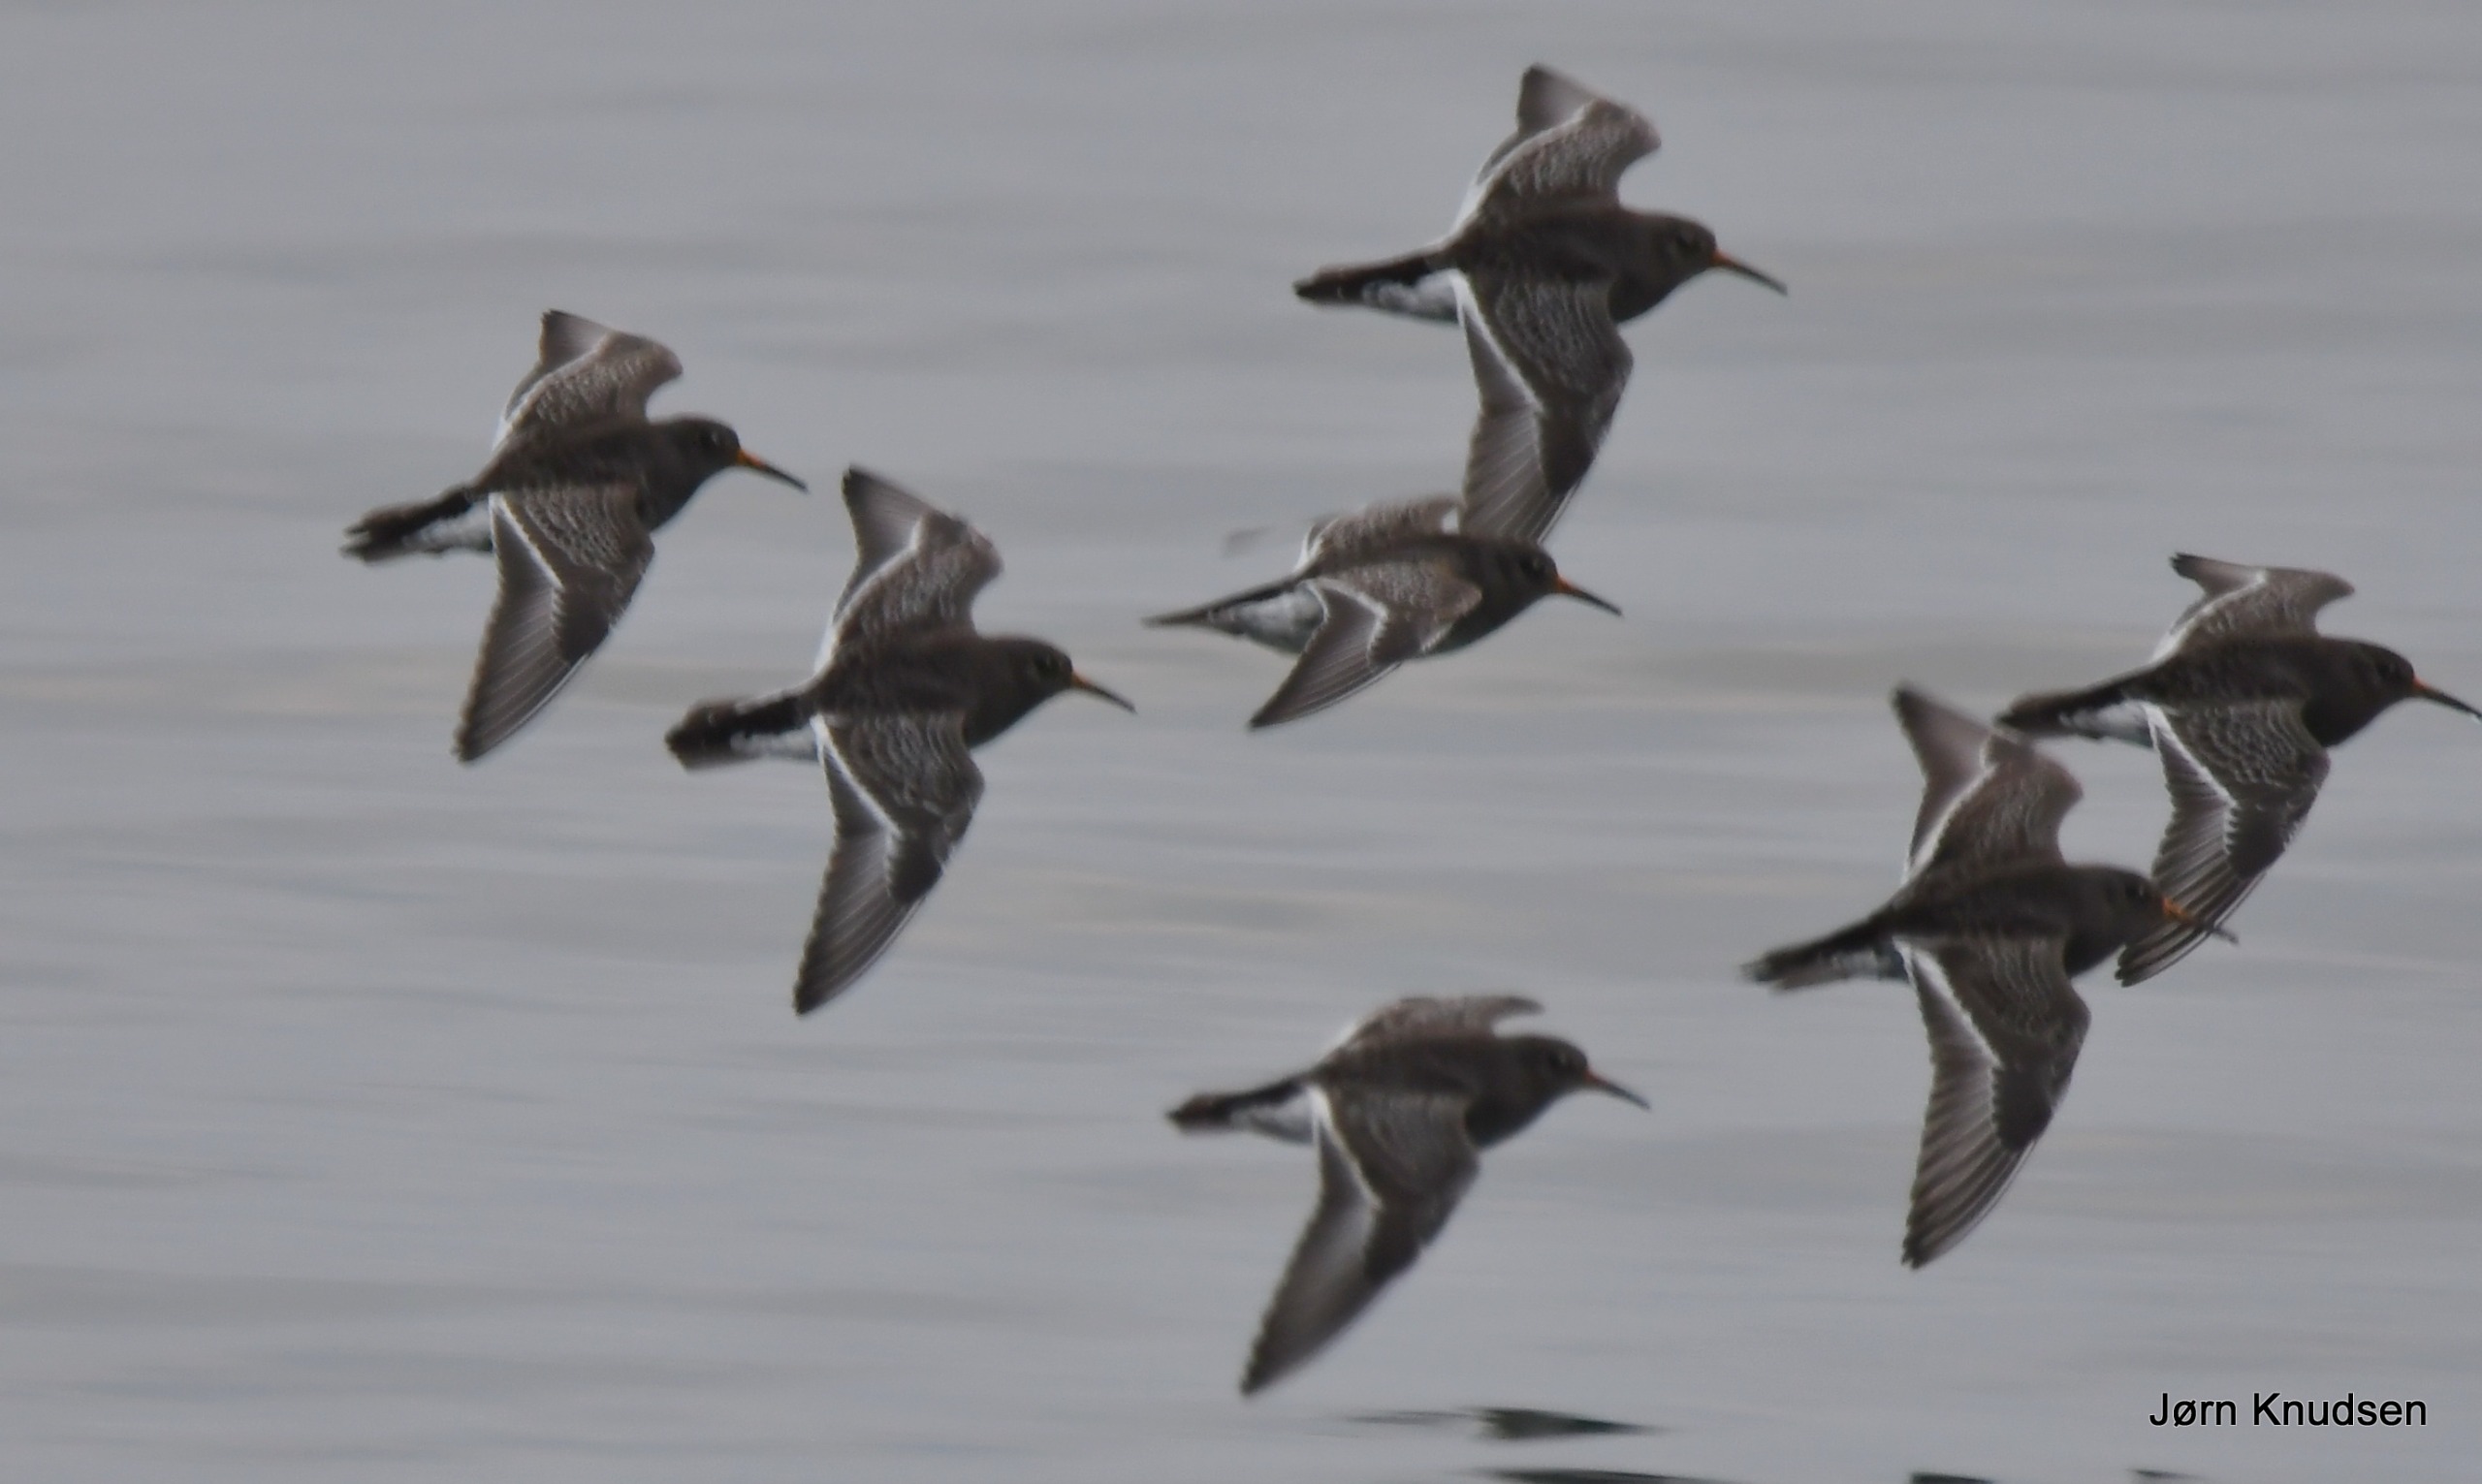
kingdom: Animalia
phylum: Chordata
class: Aves
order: Charadriiformes
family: Scolopacidae
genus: Calidris
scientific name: Calidris maritima
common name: Sortgrå ryle
